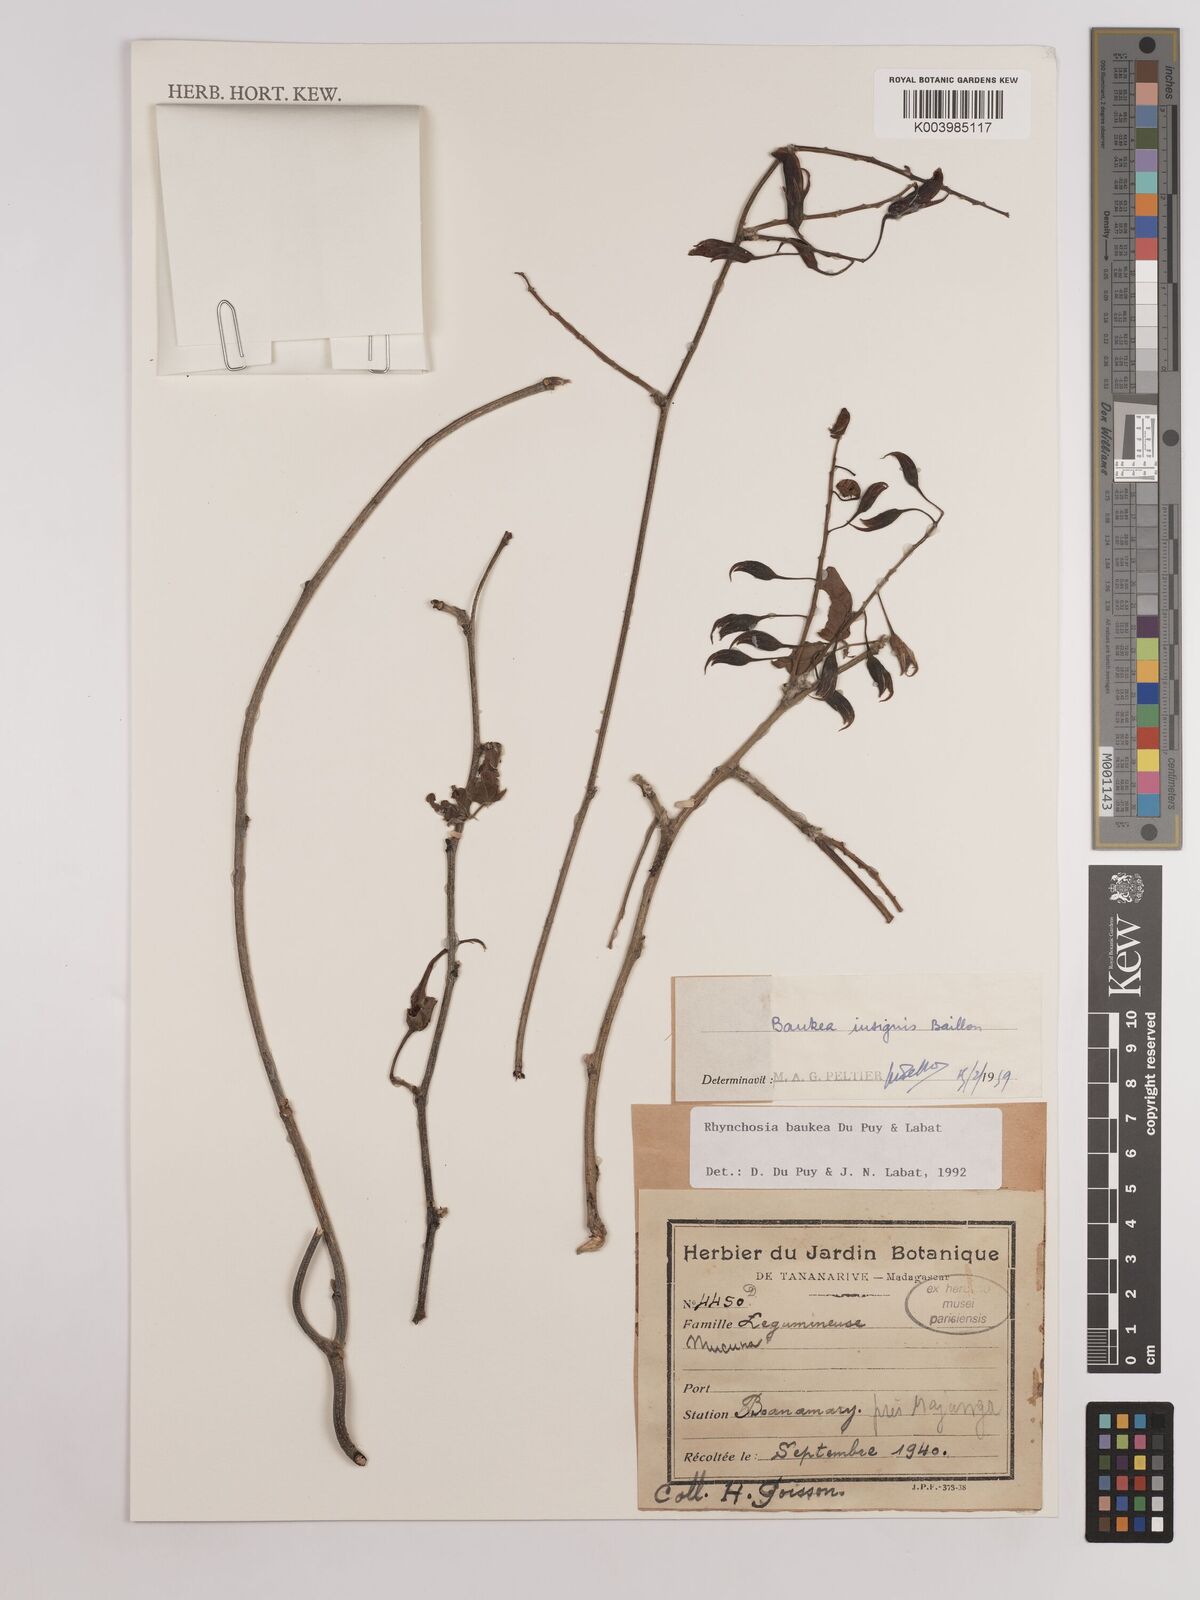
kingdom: Plantae
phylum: Tracheophyta
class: Magnoliopsida
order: Fabales
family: Fabaceae
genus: Rhynchosia
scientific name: Rhynchosia baukea
